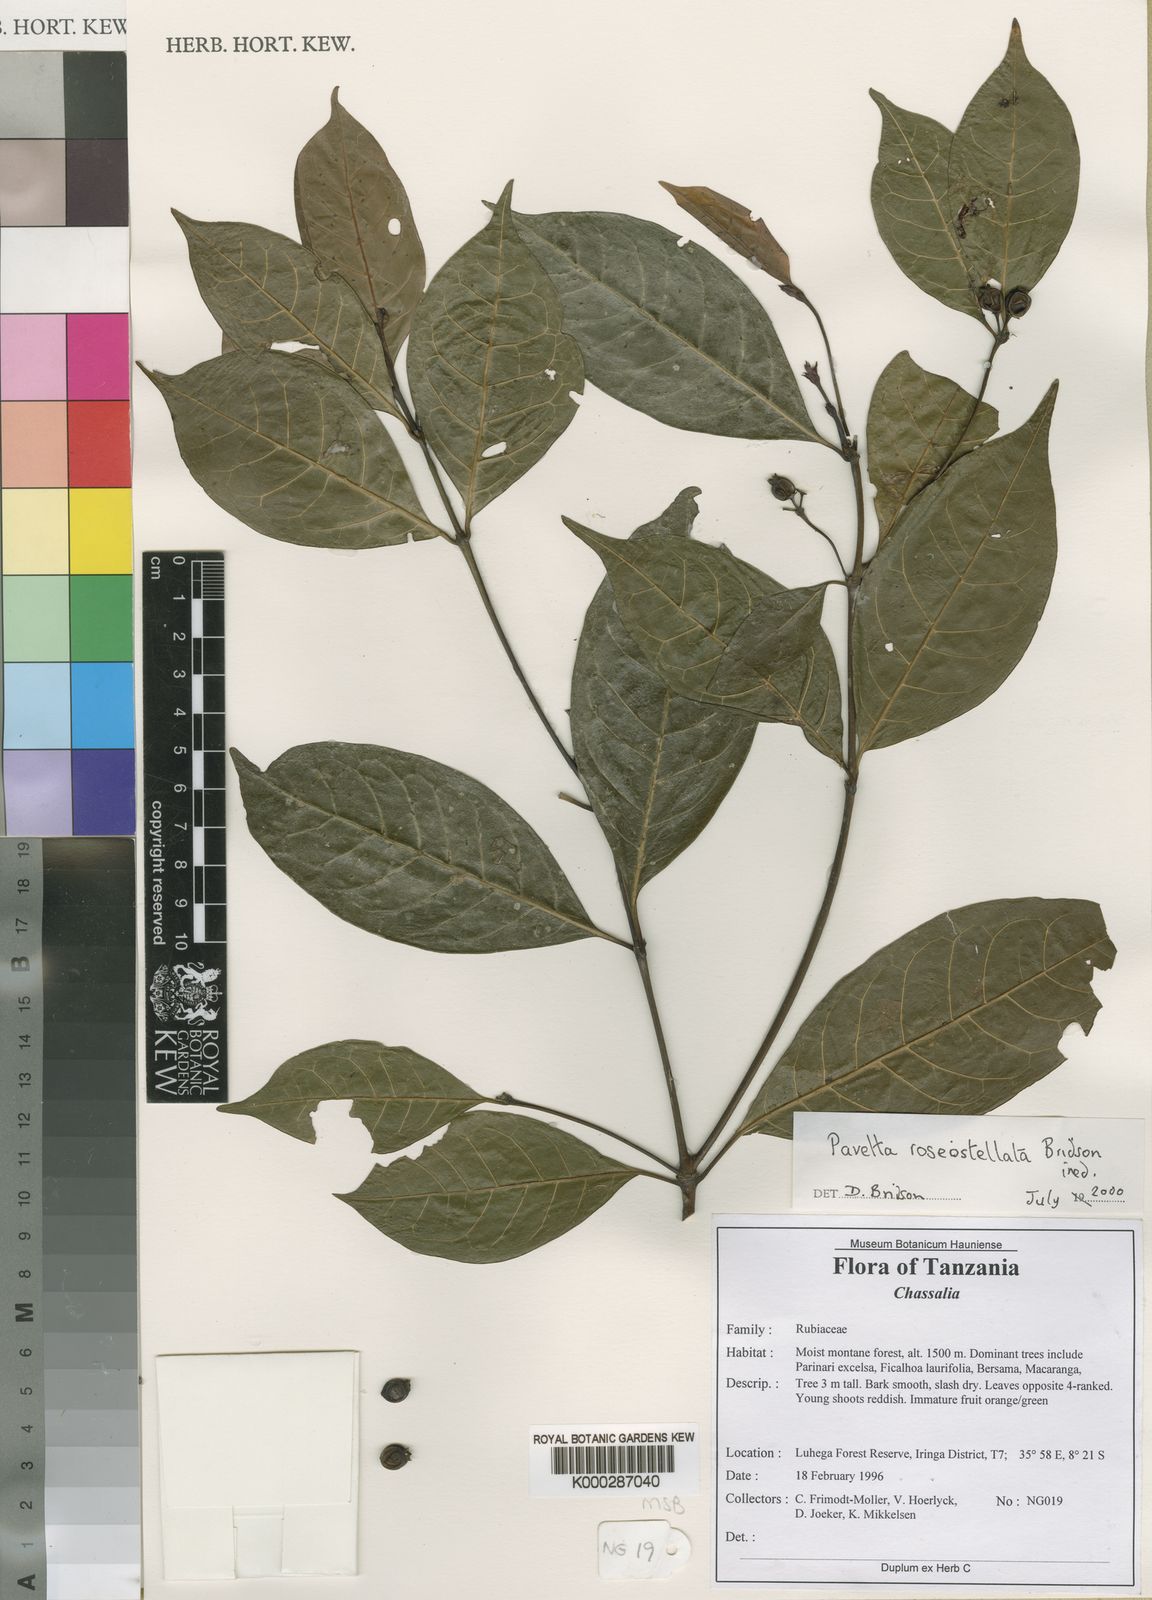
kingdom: Plantae
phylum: Tracheophyta
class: Magnoliopsida
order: Gentianales
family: Rubiaceae
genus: Pavetta
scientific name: Pavetta roseostellata
